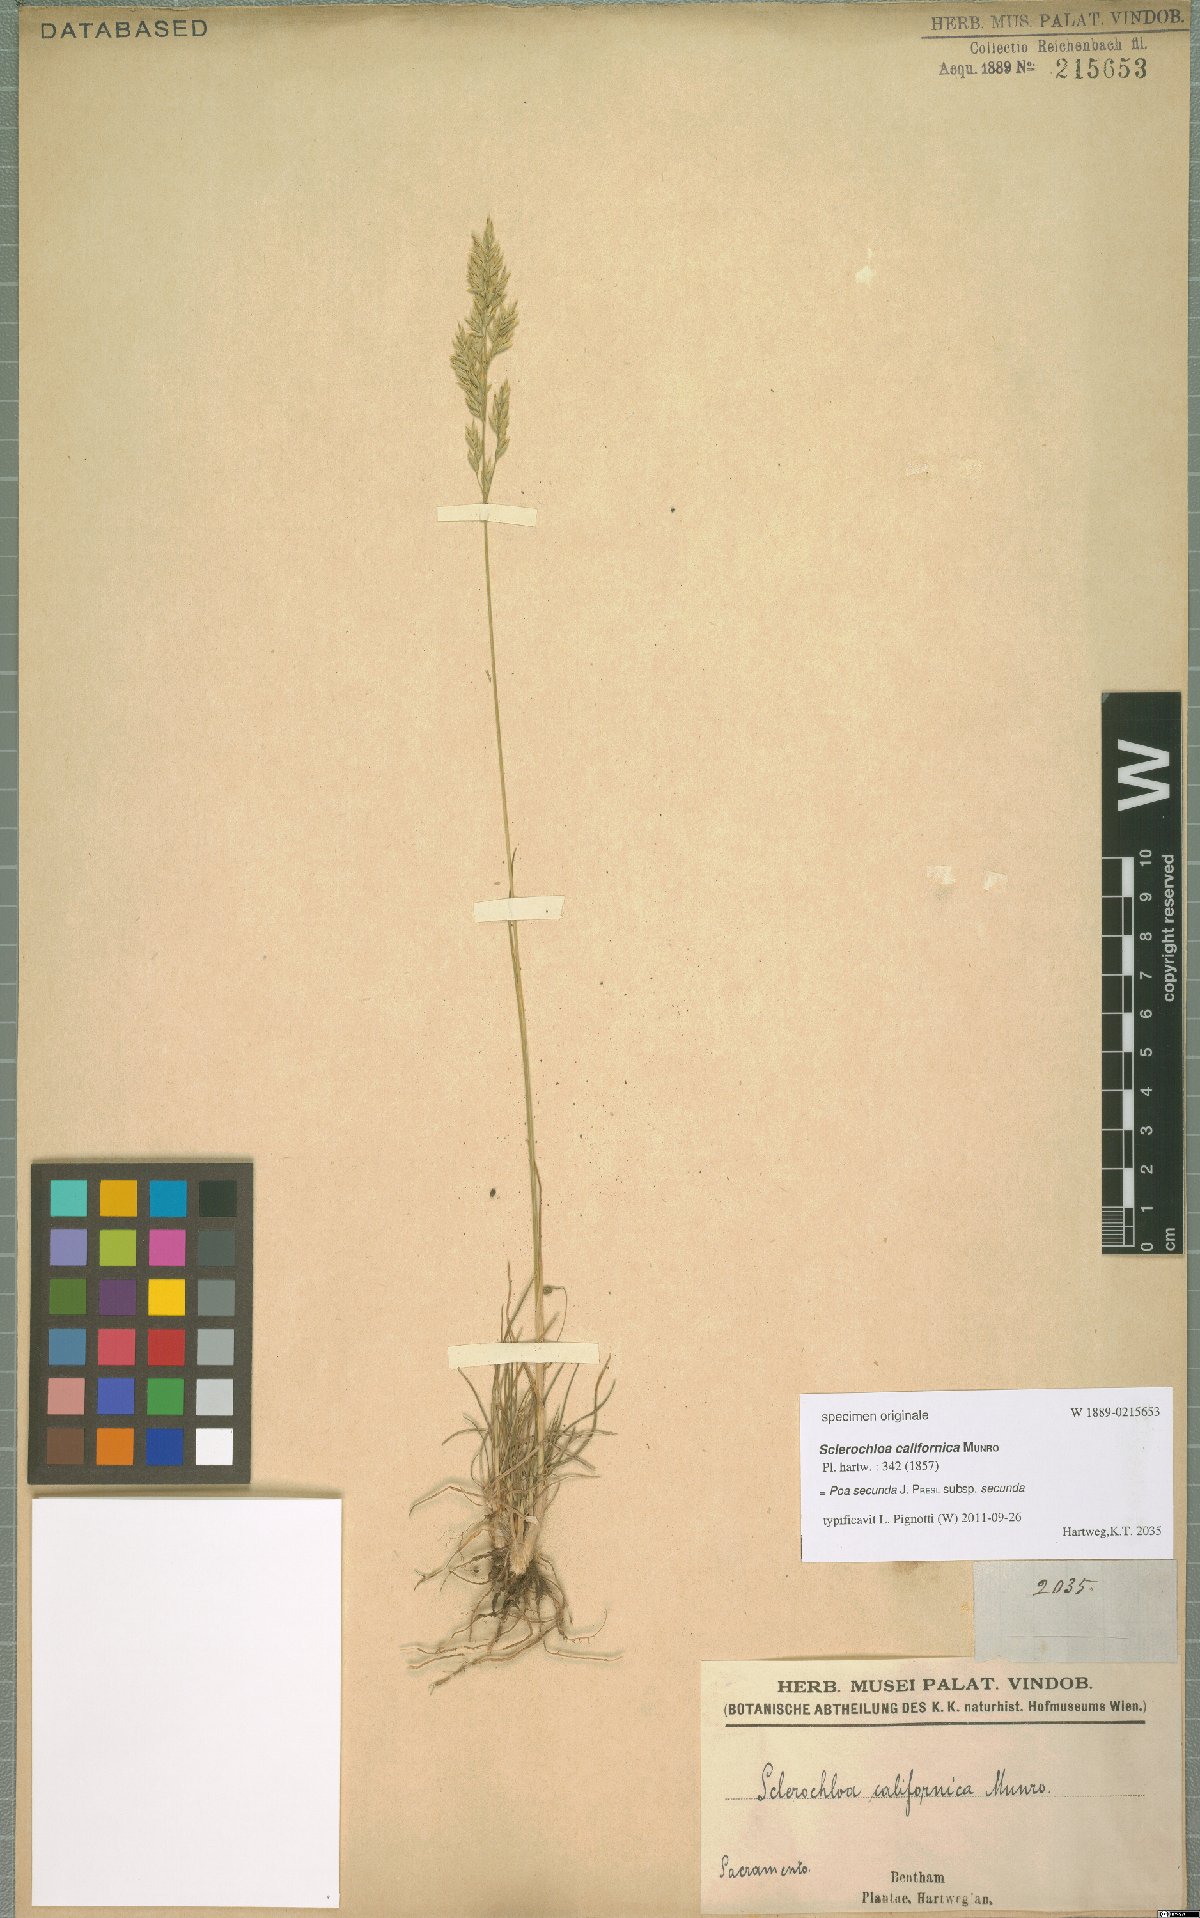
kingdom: Plantae
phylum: Tracheophyta
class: Liliopsida
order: Poales
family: Poaceae
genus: Poa
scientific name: Poa secunda
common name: Sandberg bluegrass
